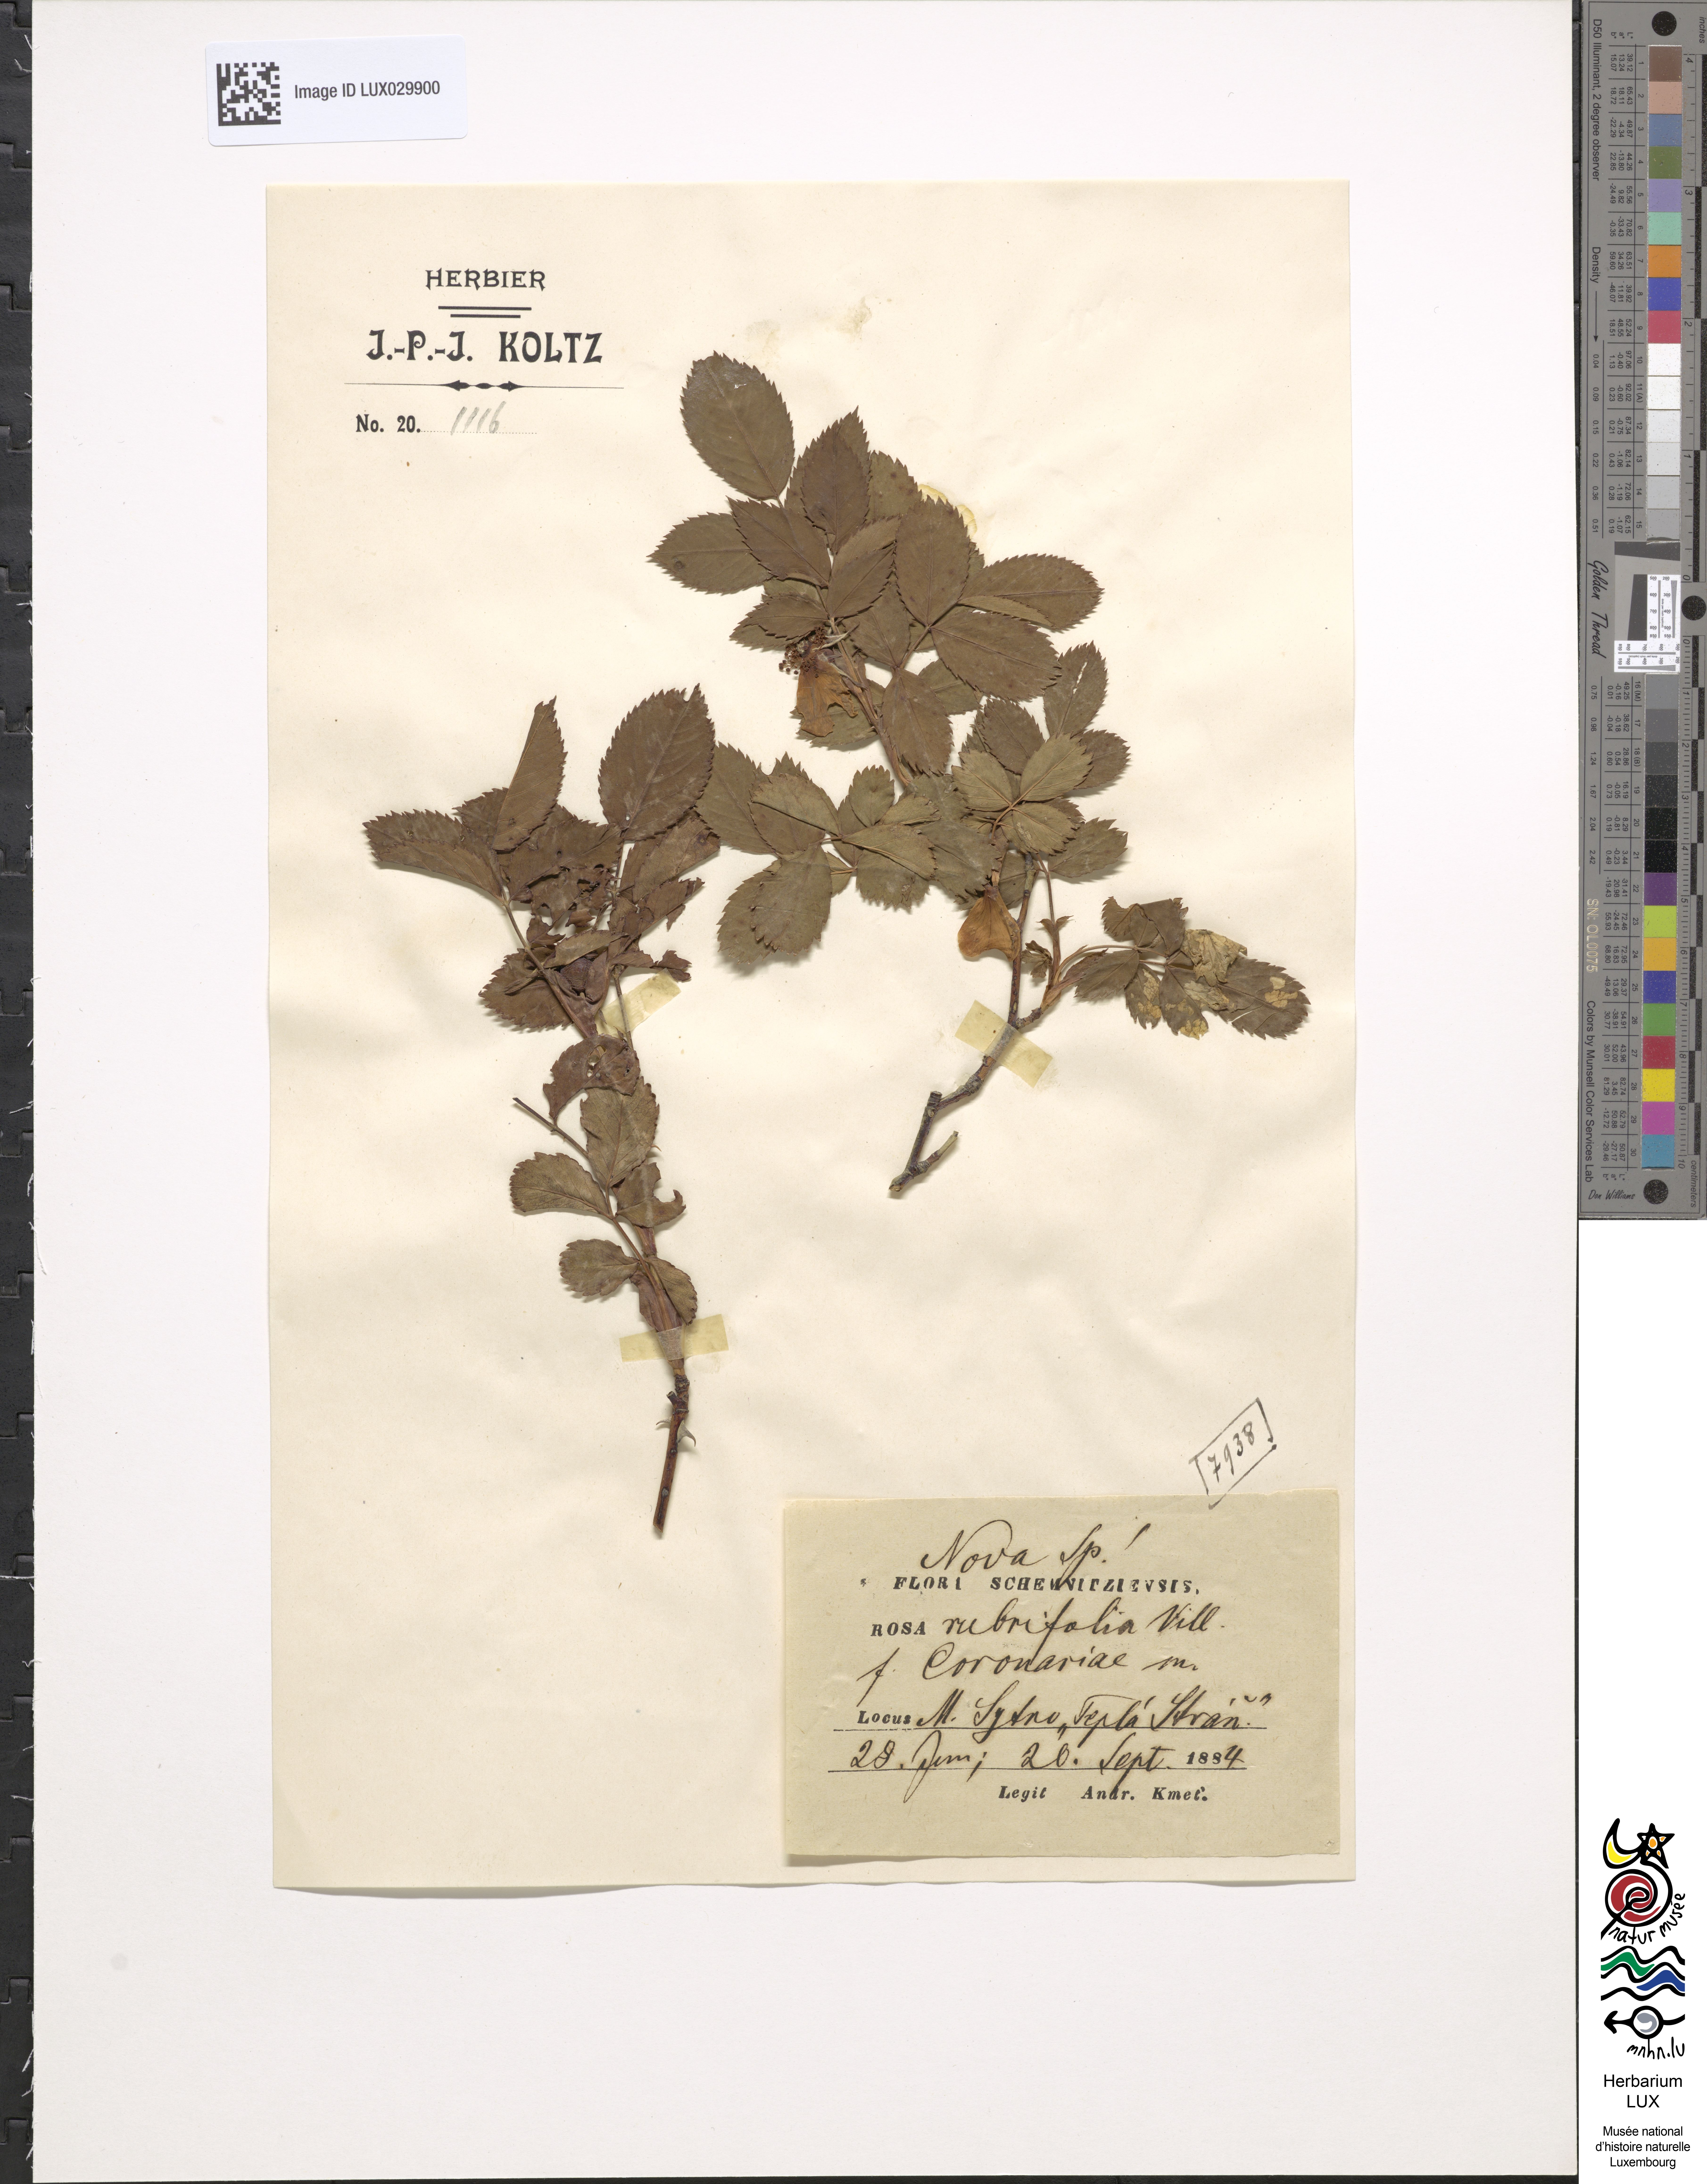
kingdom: Plantae
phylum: Tracheophyta
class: Magnoliopsida
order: Rosales
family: Rosaceae
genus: Rosa
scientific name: Rosa glauca
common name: Redleaf rose
